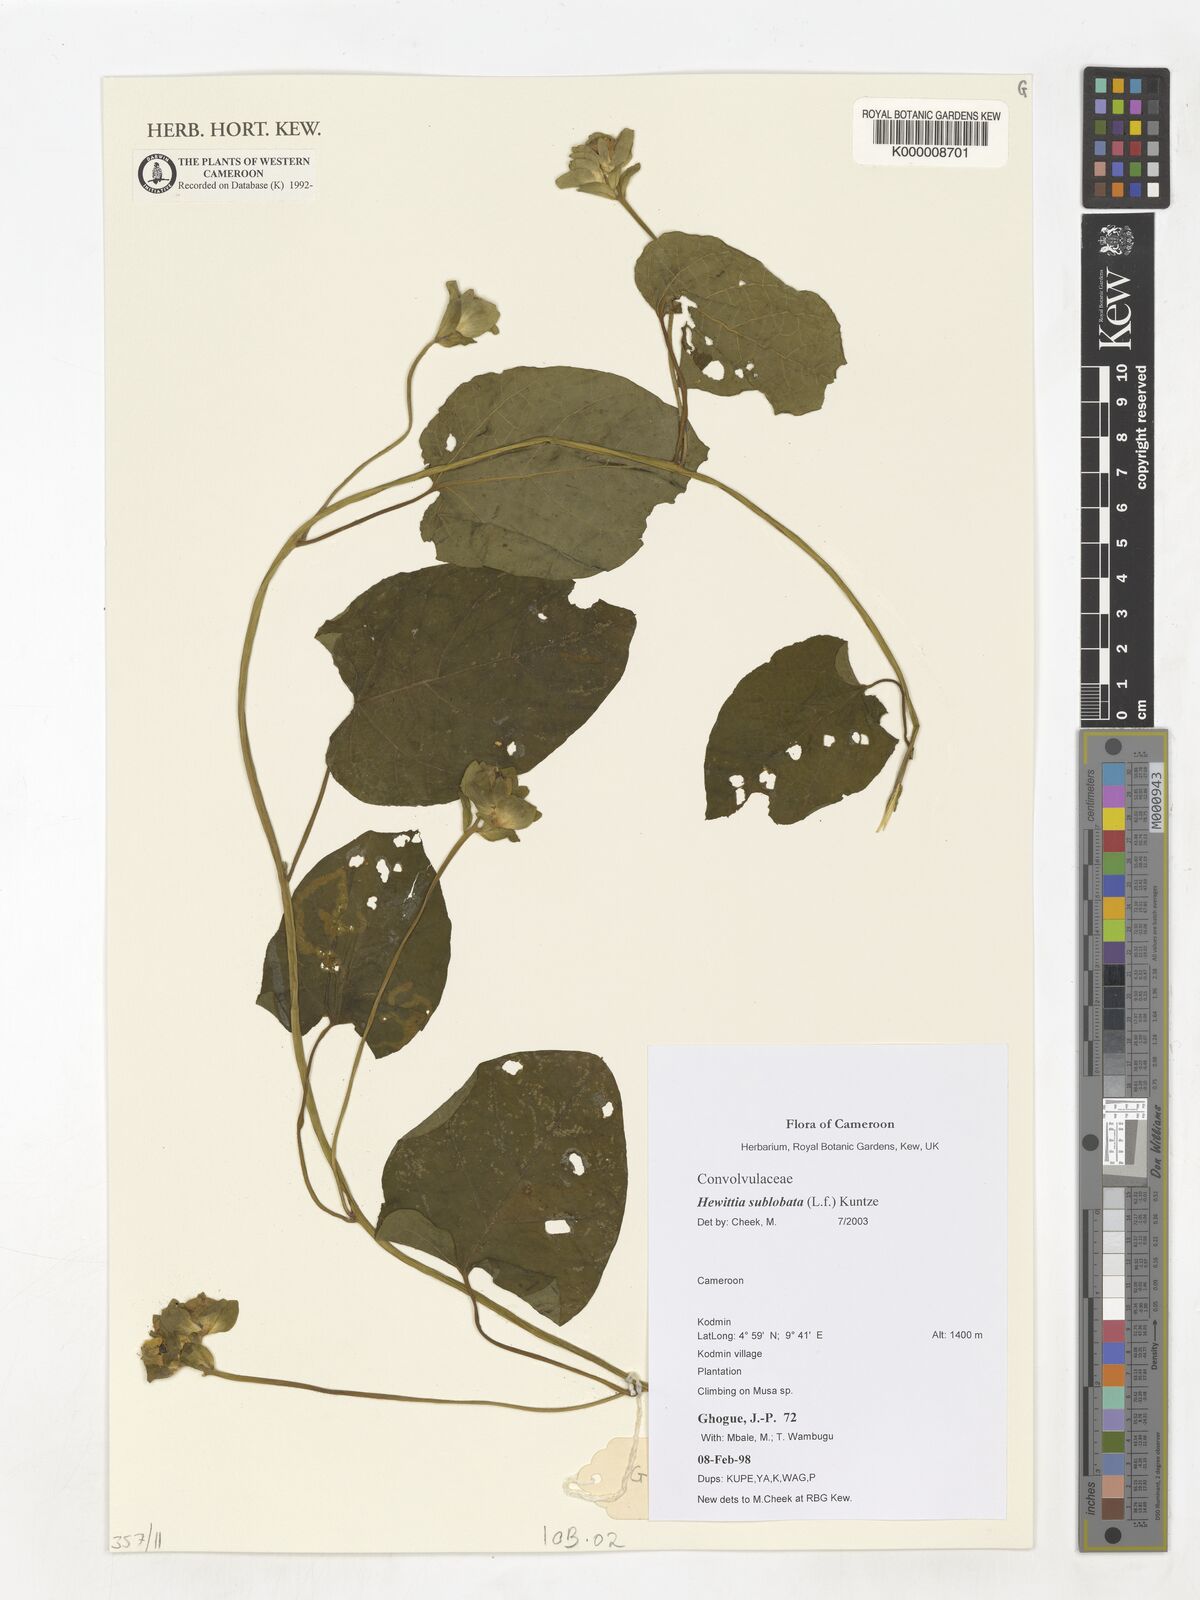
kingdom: Plantae
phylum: Tracheophyta
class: Magnoliopsida
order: Solanales
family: Convolvulaceae
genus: Hewittia
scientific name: Hewittia malabarica
